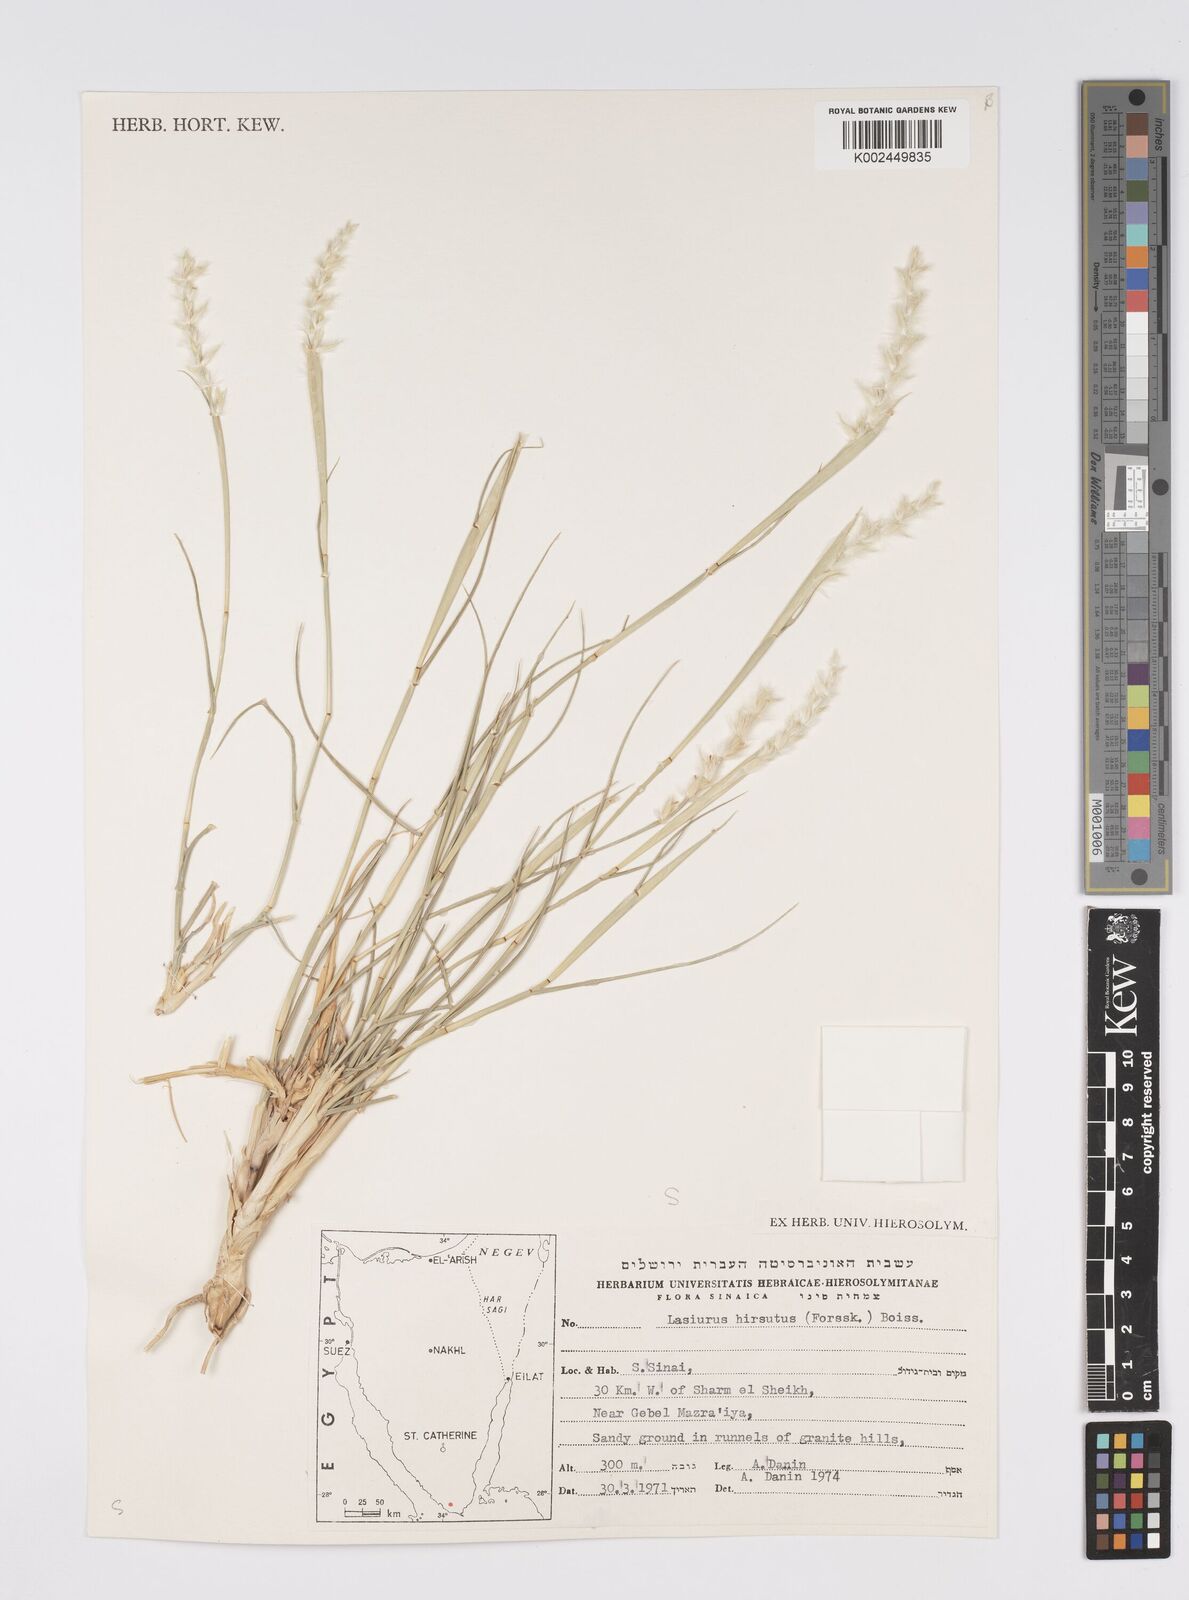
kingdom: Plantae
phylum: Tracheophyta
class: Liliopsida
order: Poales
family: Poaceae
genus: Lasiurus
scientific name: Lasiurus scindicus
